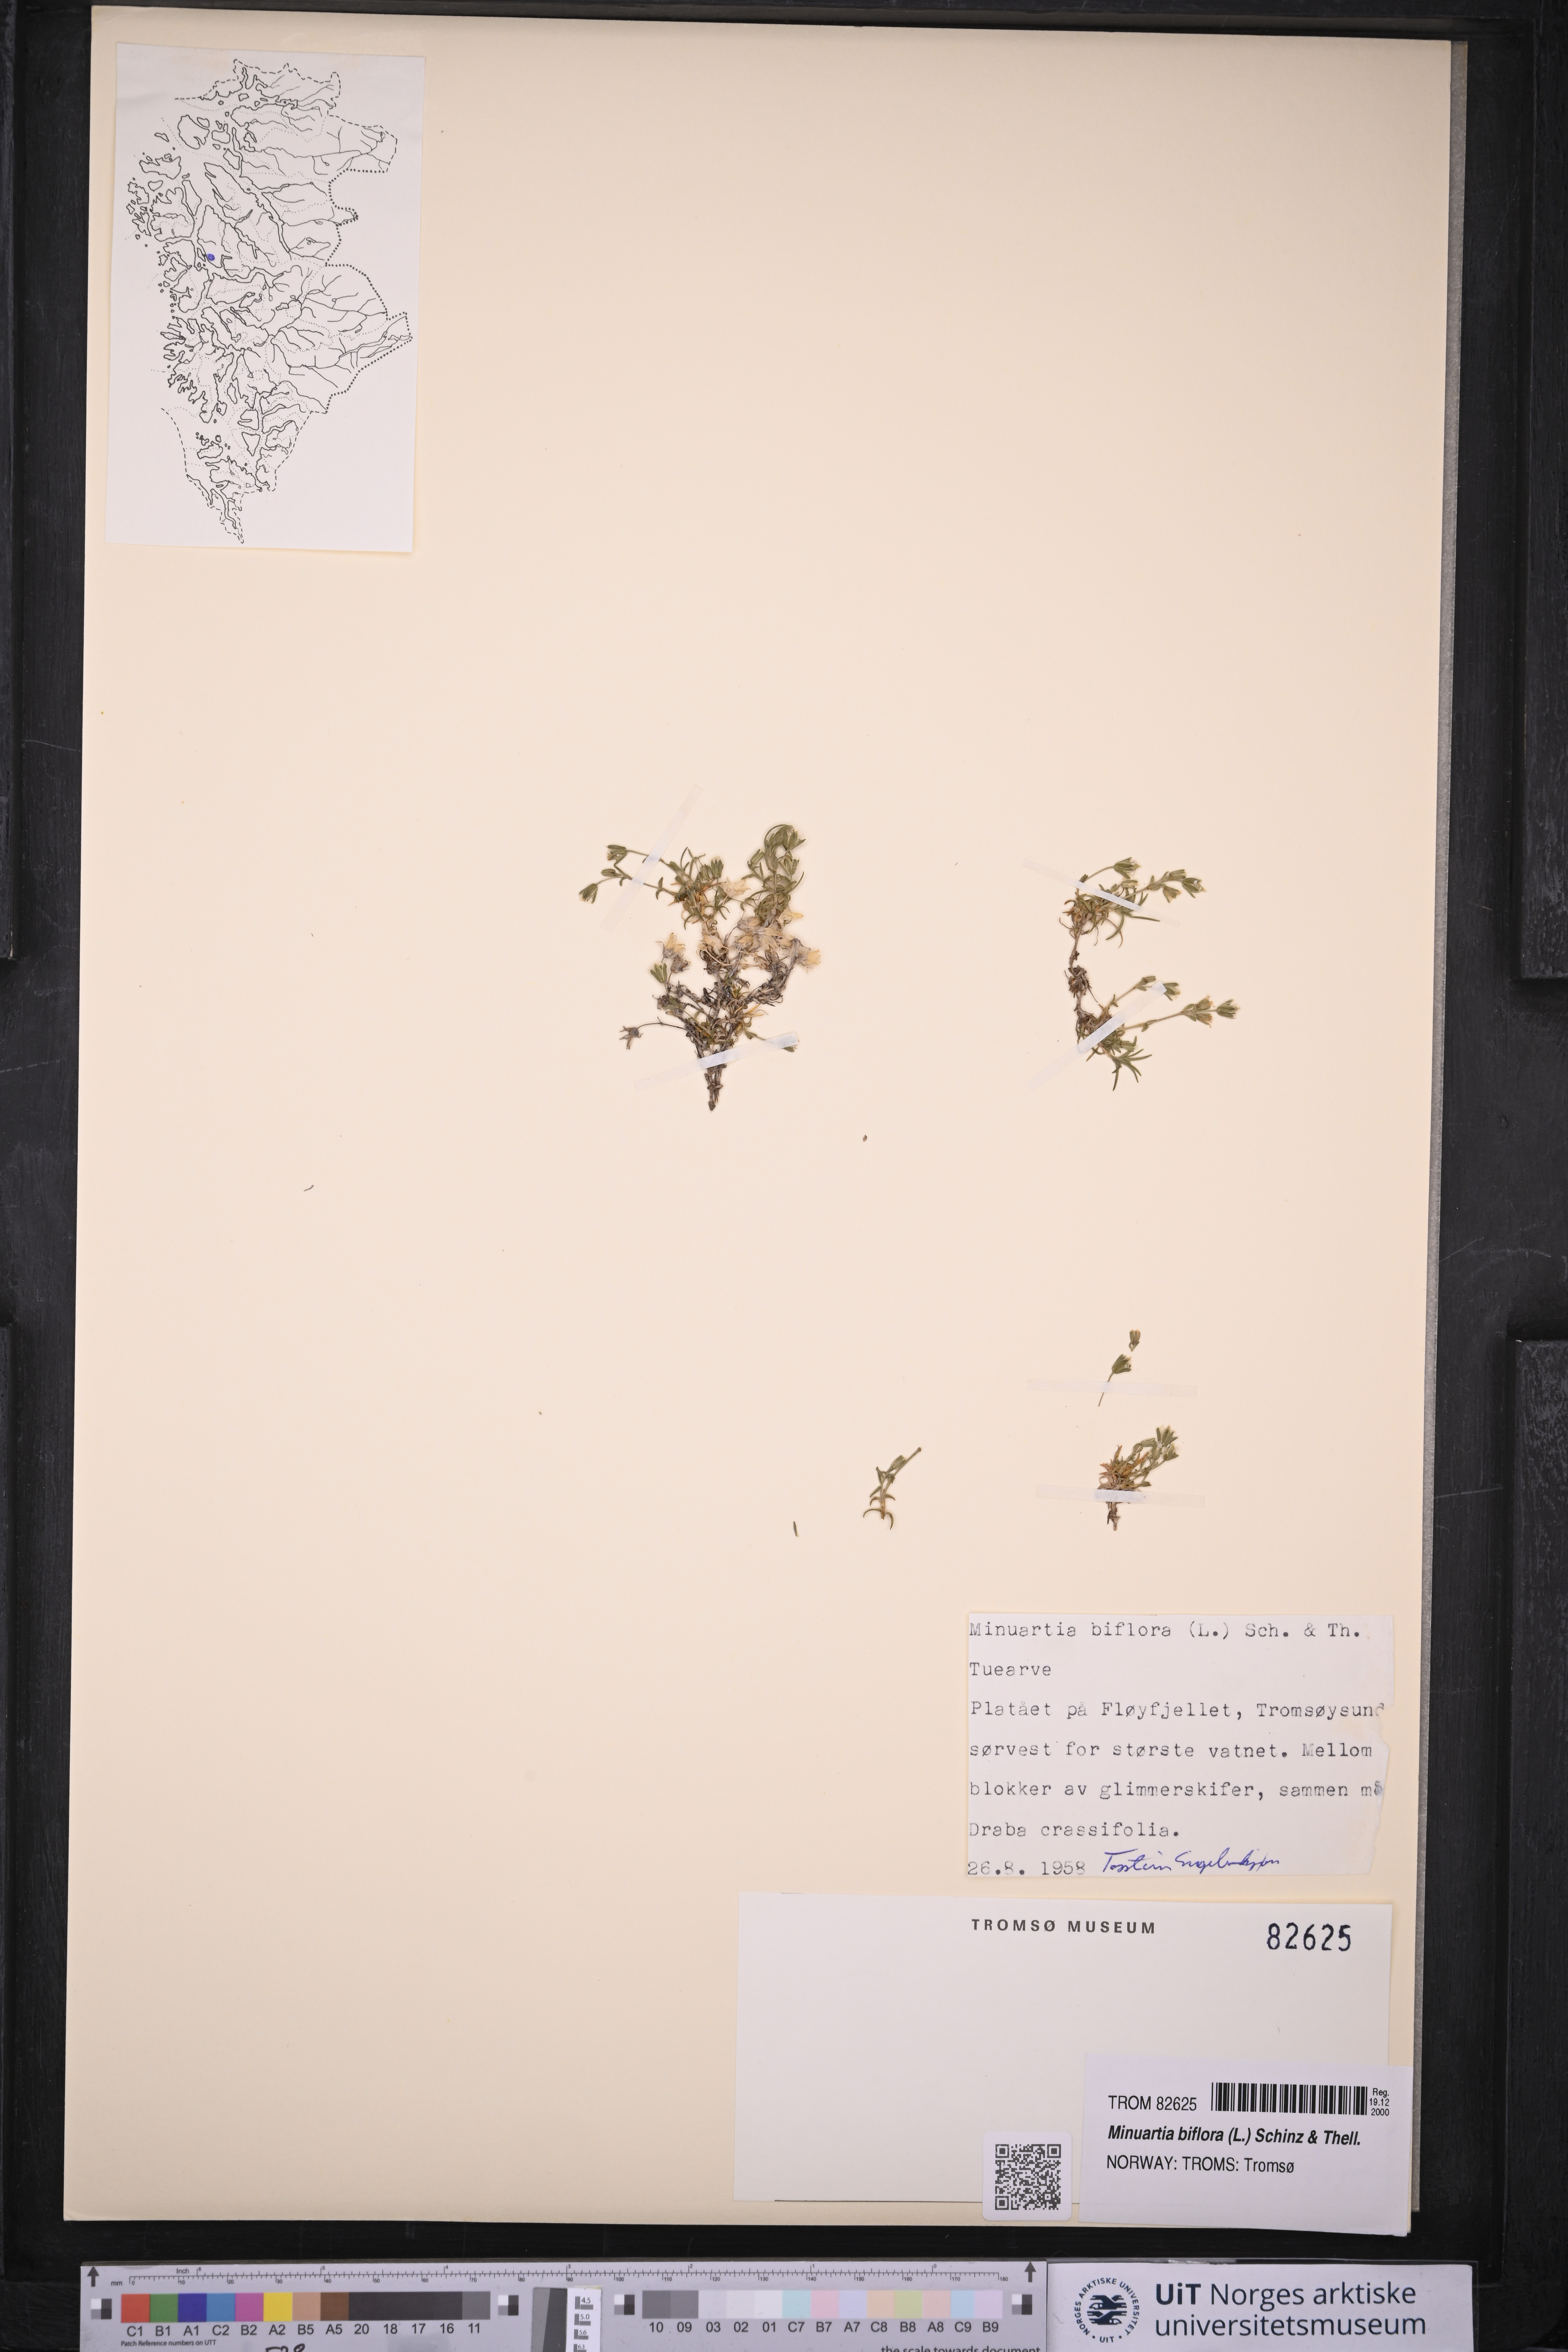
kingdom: Plantae
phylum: Tracheophyta
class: Magnoliopsida
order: Caryophyllales
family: Caryophyllaceae
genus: Cherleria
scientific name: Cherleria biflora
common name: Mountain sandwort
